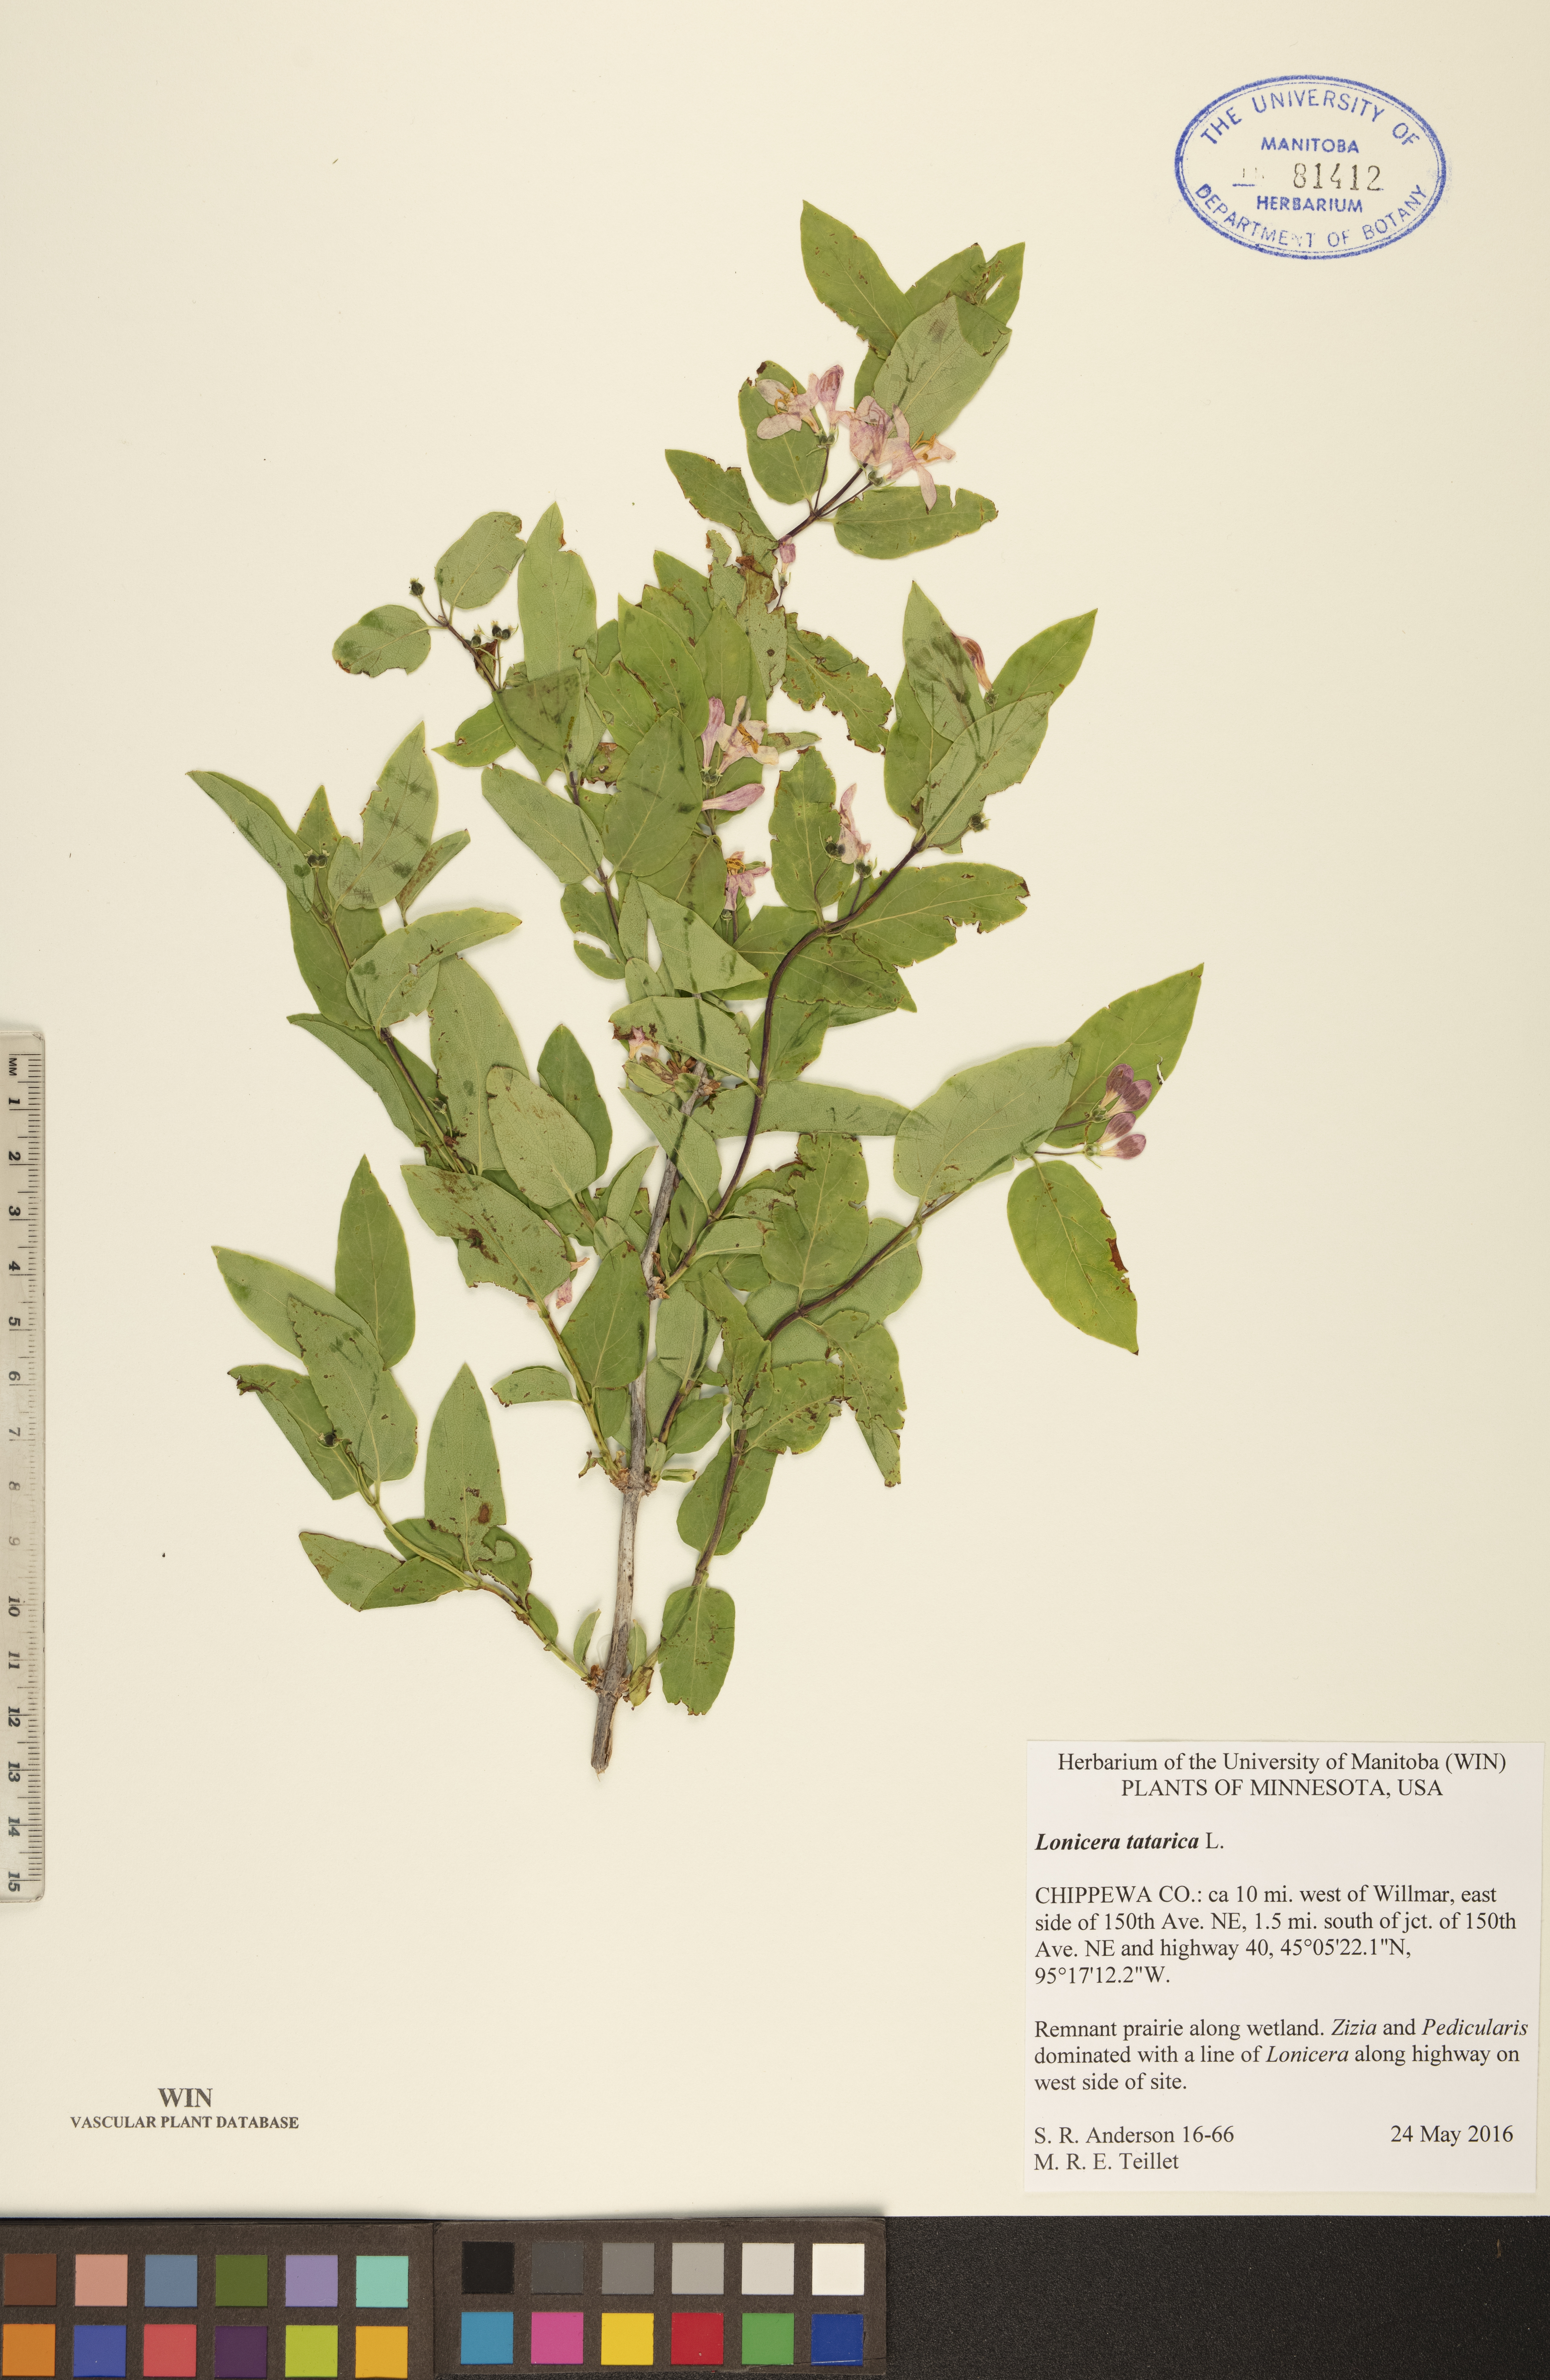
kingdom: Plantae
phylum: Tracheophyta
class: Magnoliopsida
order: Dipsacales
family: Caprifoliaceae
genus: Lonicera
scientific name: Lonicera tatarica
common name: Tatarian honeysuckle
